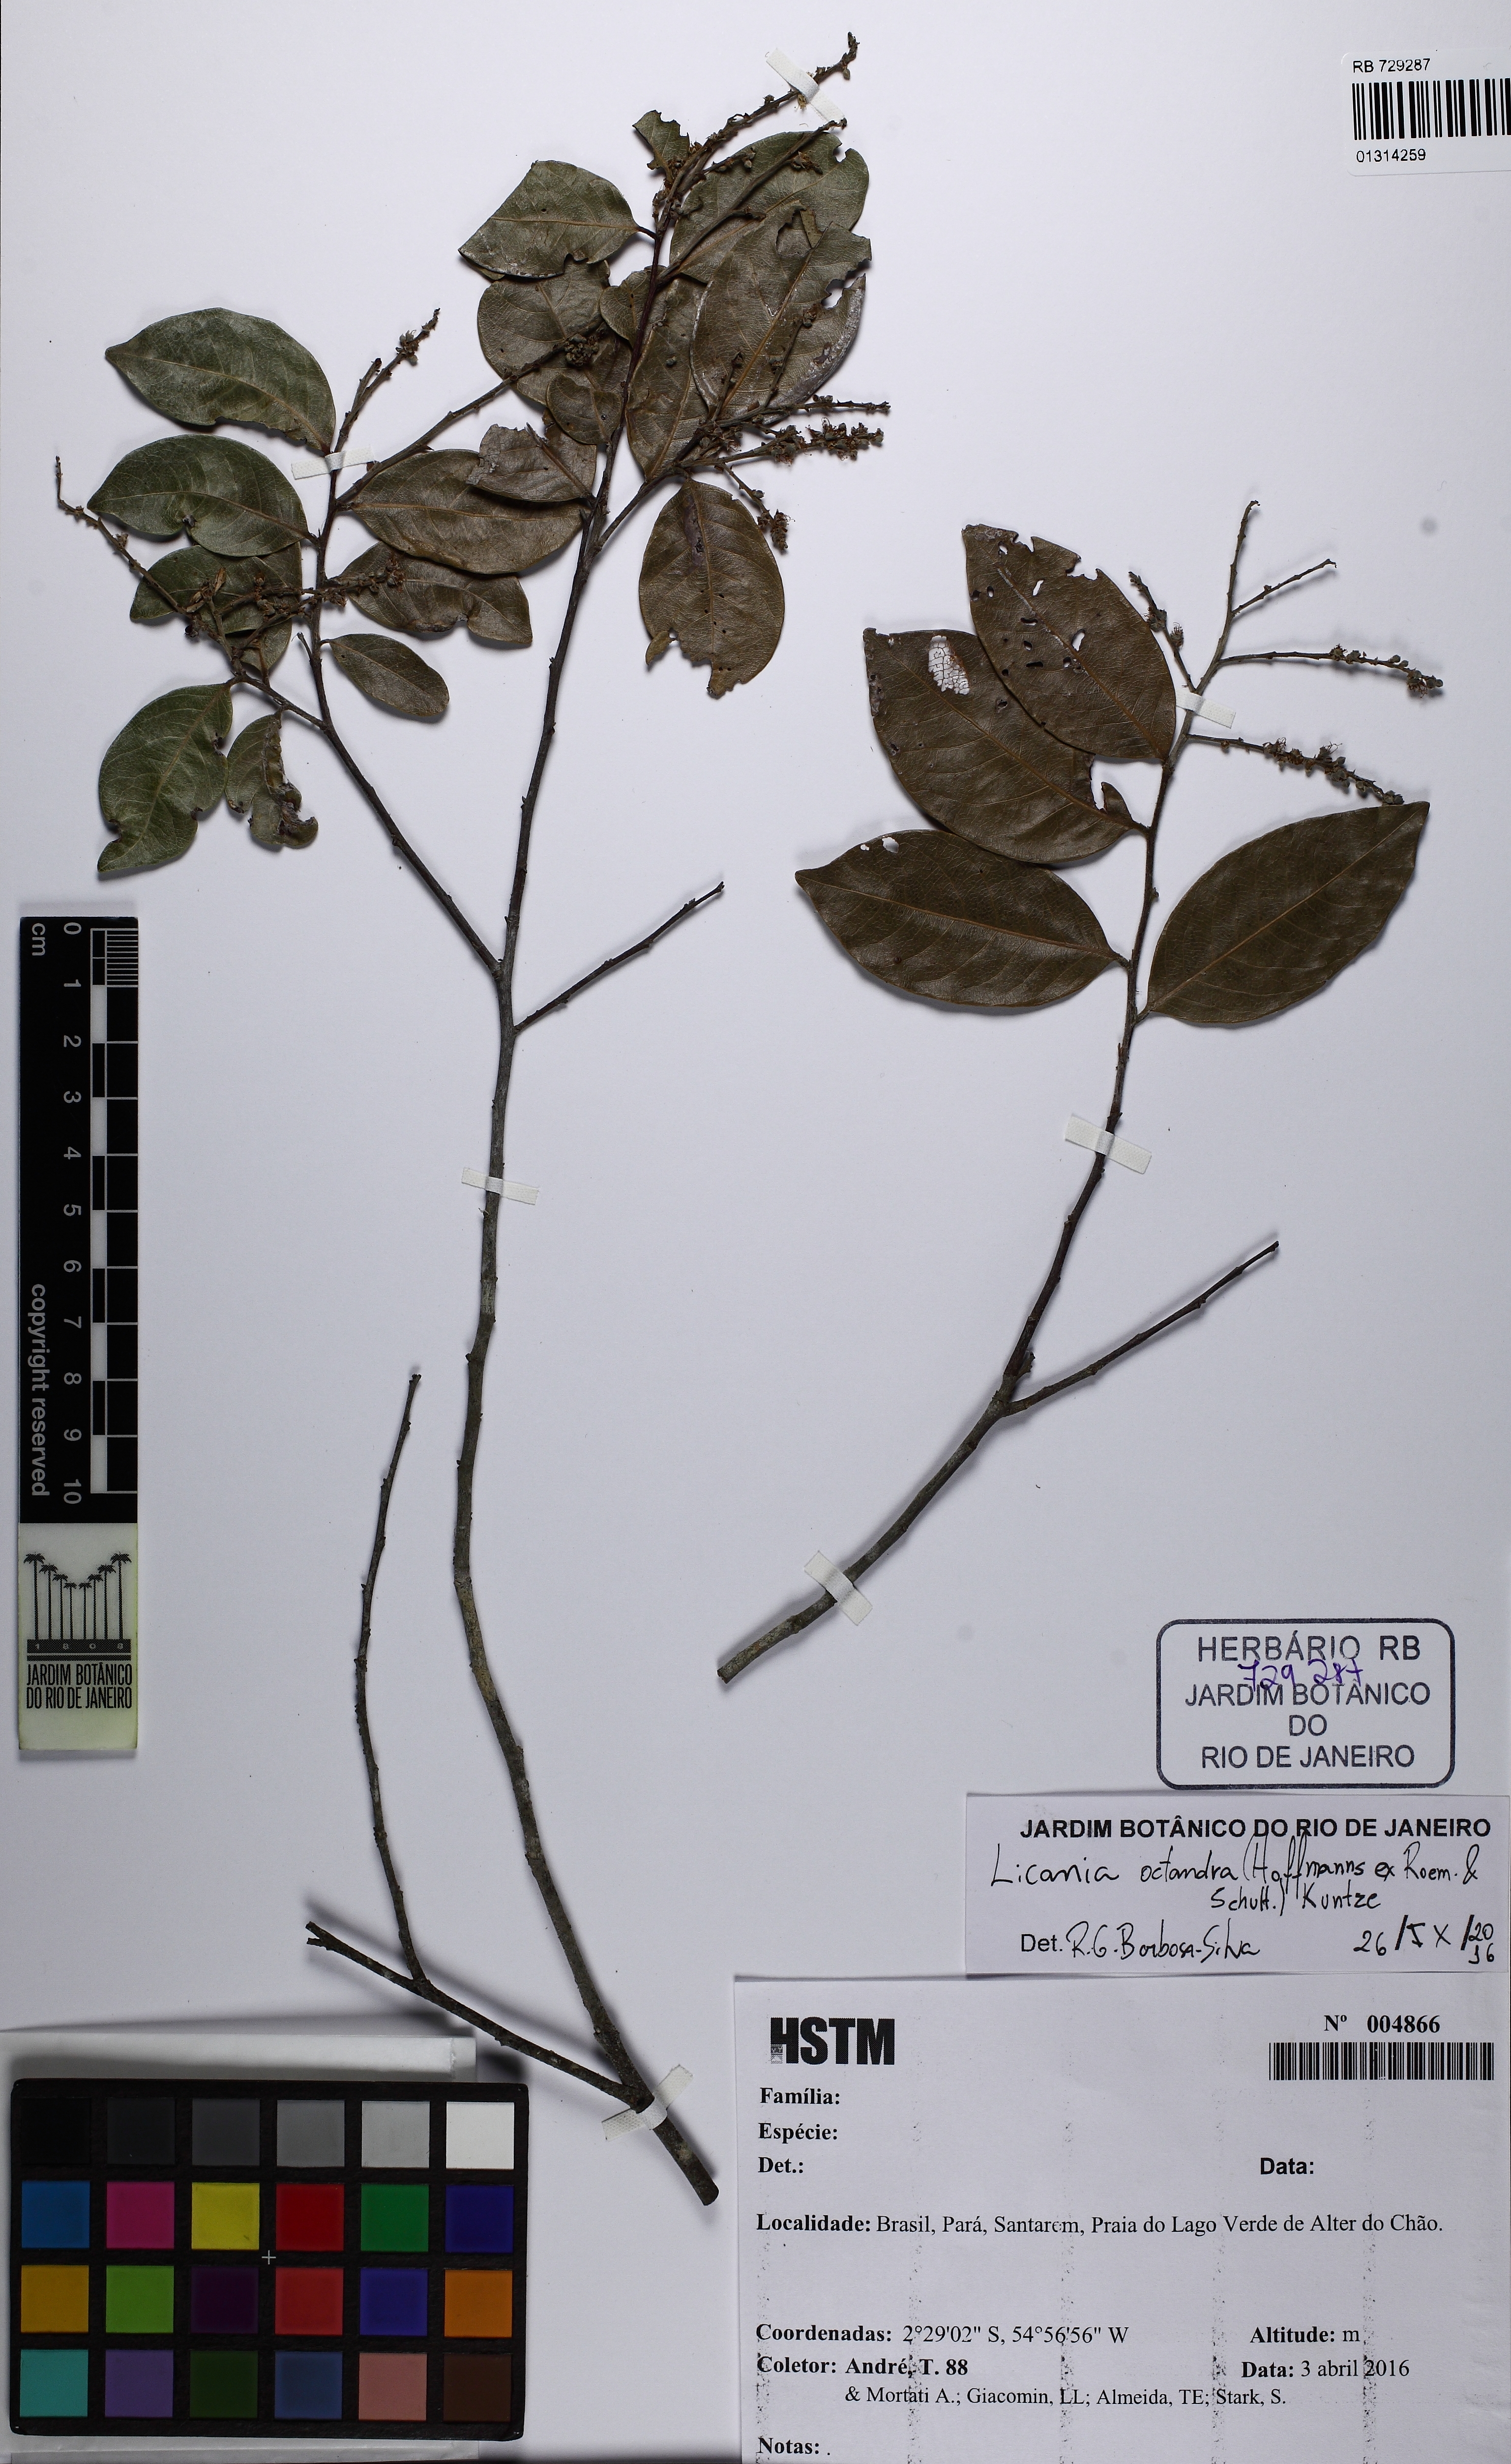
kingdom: Plantae
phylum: Tracheophyta
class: Magnoliopsida
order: Malpighiales
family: Chrysobalanaceae
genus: Leptobalanus
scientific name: Leptobalanus octandrus
